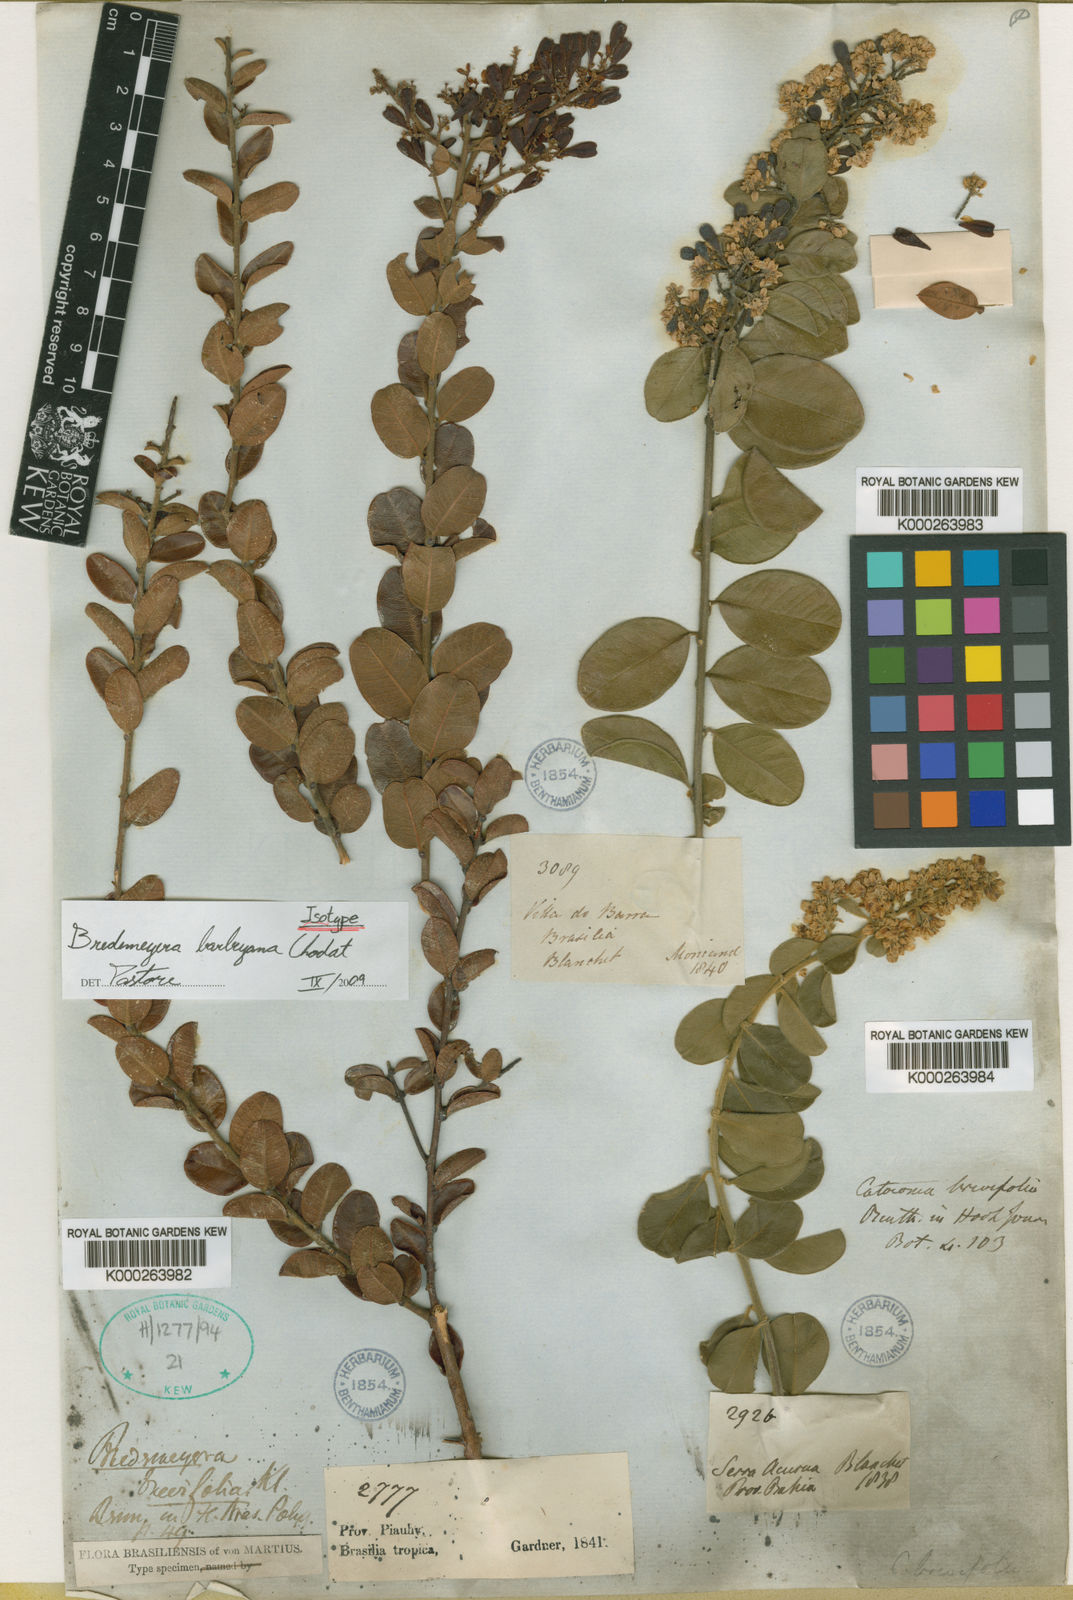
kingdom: Plantae
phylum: Tracheophyta
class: Magnoliopsida
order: Fabales
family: Polygalaceae
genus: Bredemeyera
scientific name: Bredemeyera barbeyana
